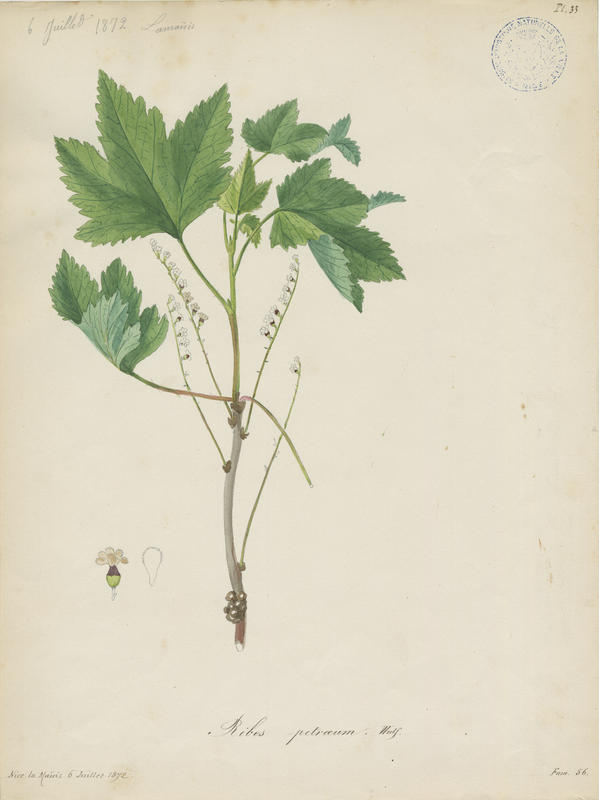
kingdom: Plantae
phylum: Tracheophyta
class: Magnoliopsida
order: Saxifragales
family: Grossulariaceae
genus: Ribes
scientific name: Ribes petraeum
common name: Rock currant
